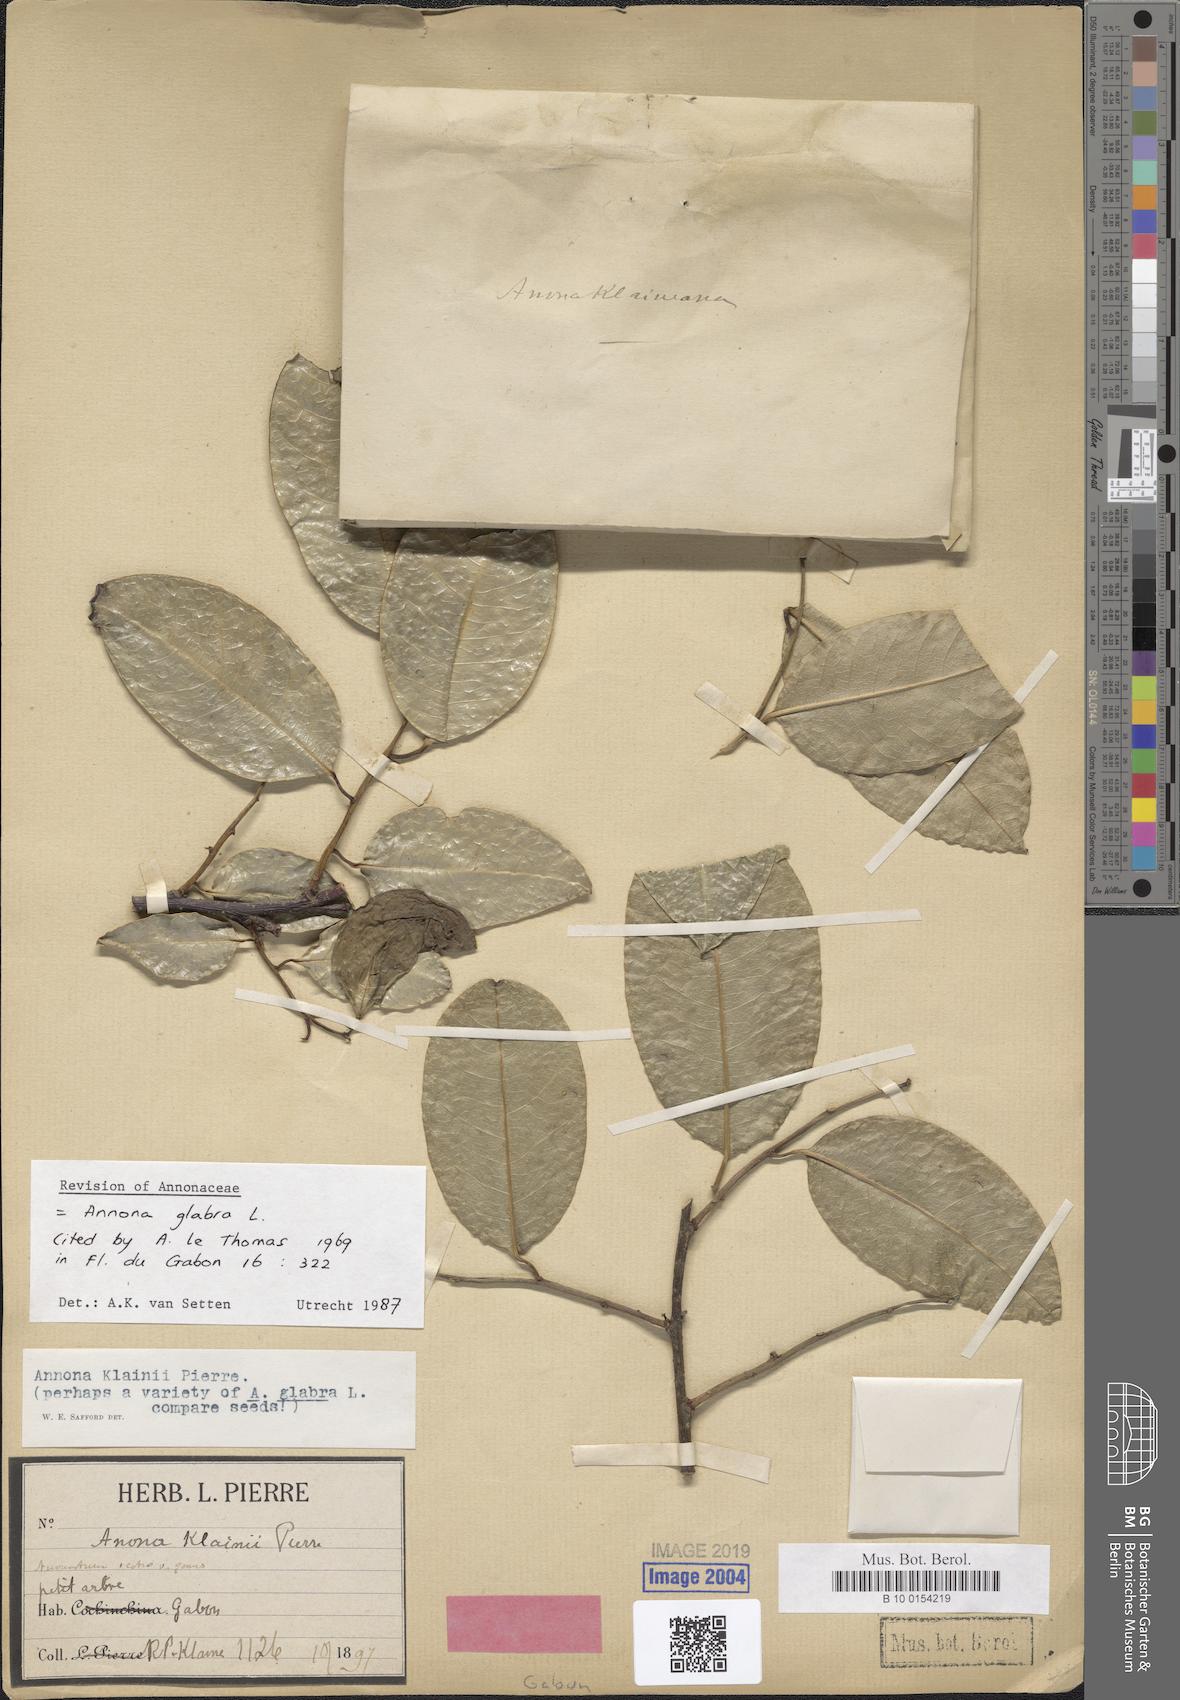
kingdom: Plantae
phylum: Tracheophyta
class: Magnoliopsida
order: Magnoliales
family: Annonaceae
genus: Annona
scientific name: Annona glabra
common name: Monkey apple
